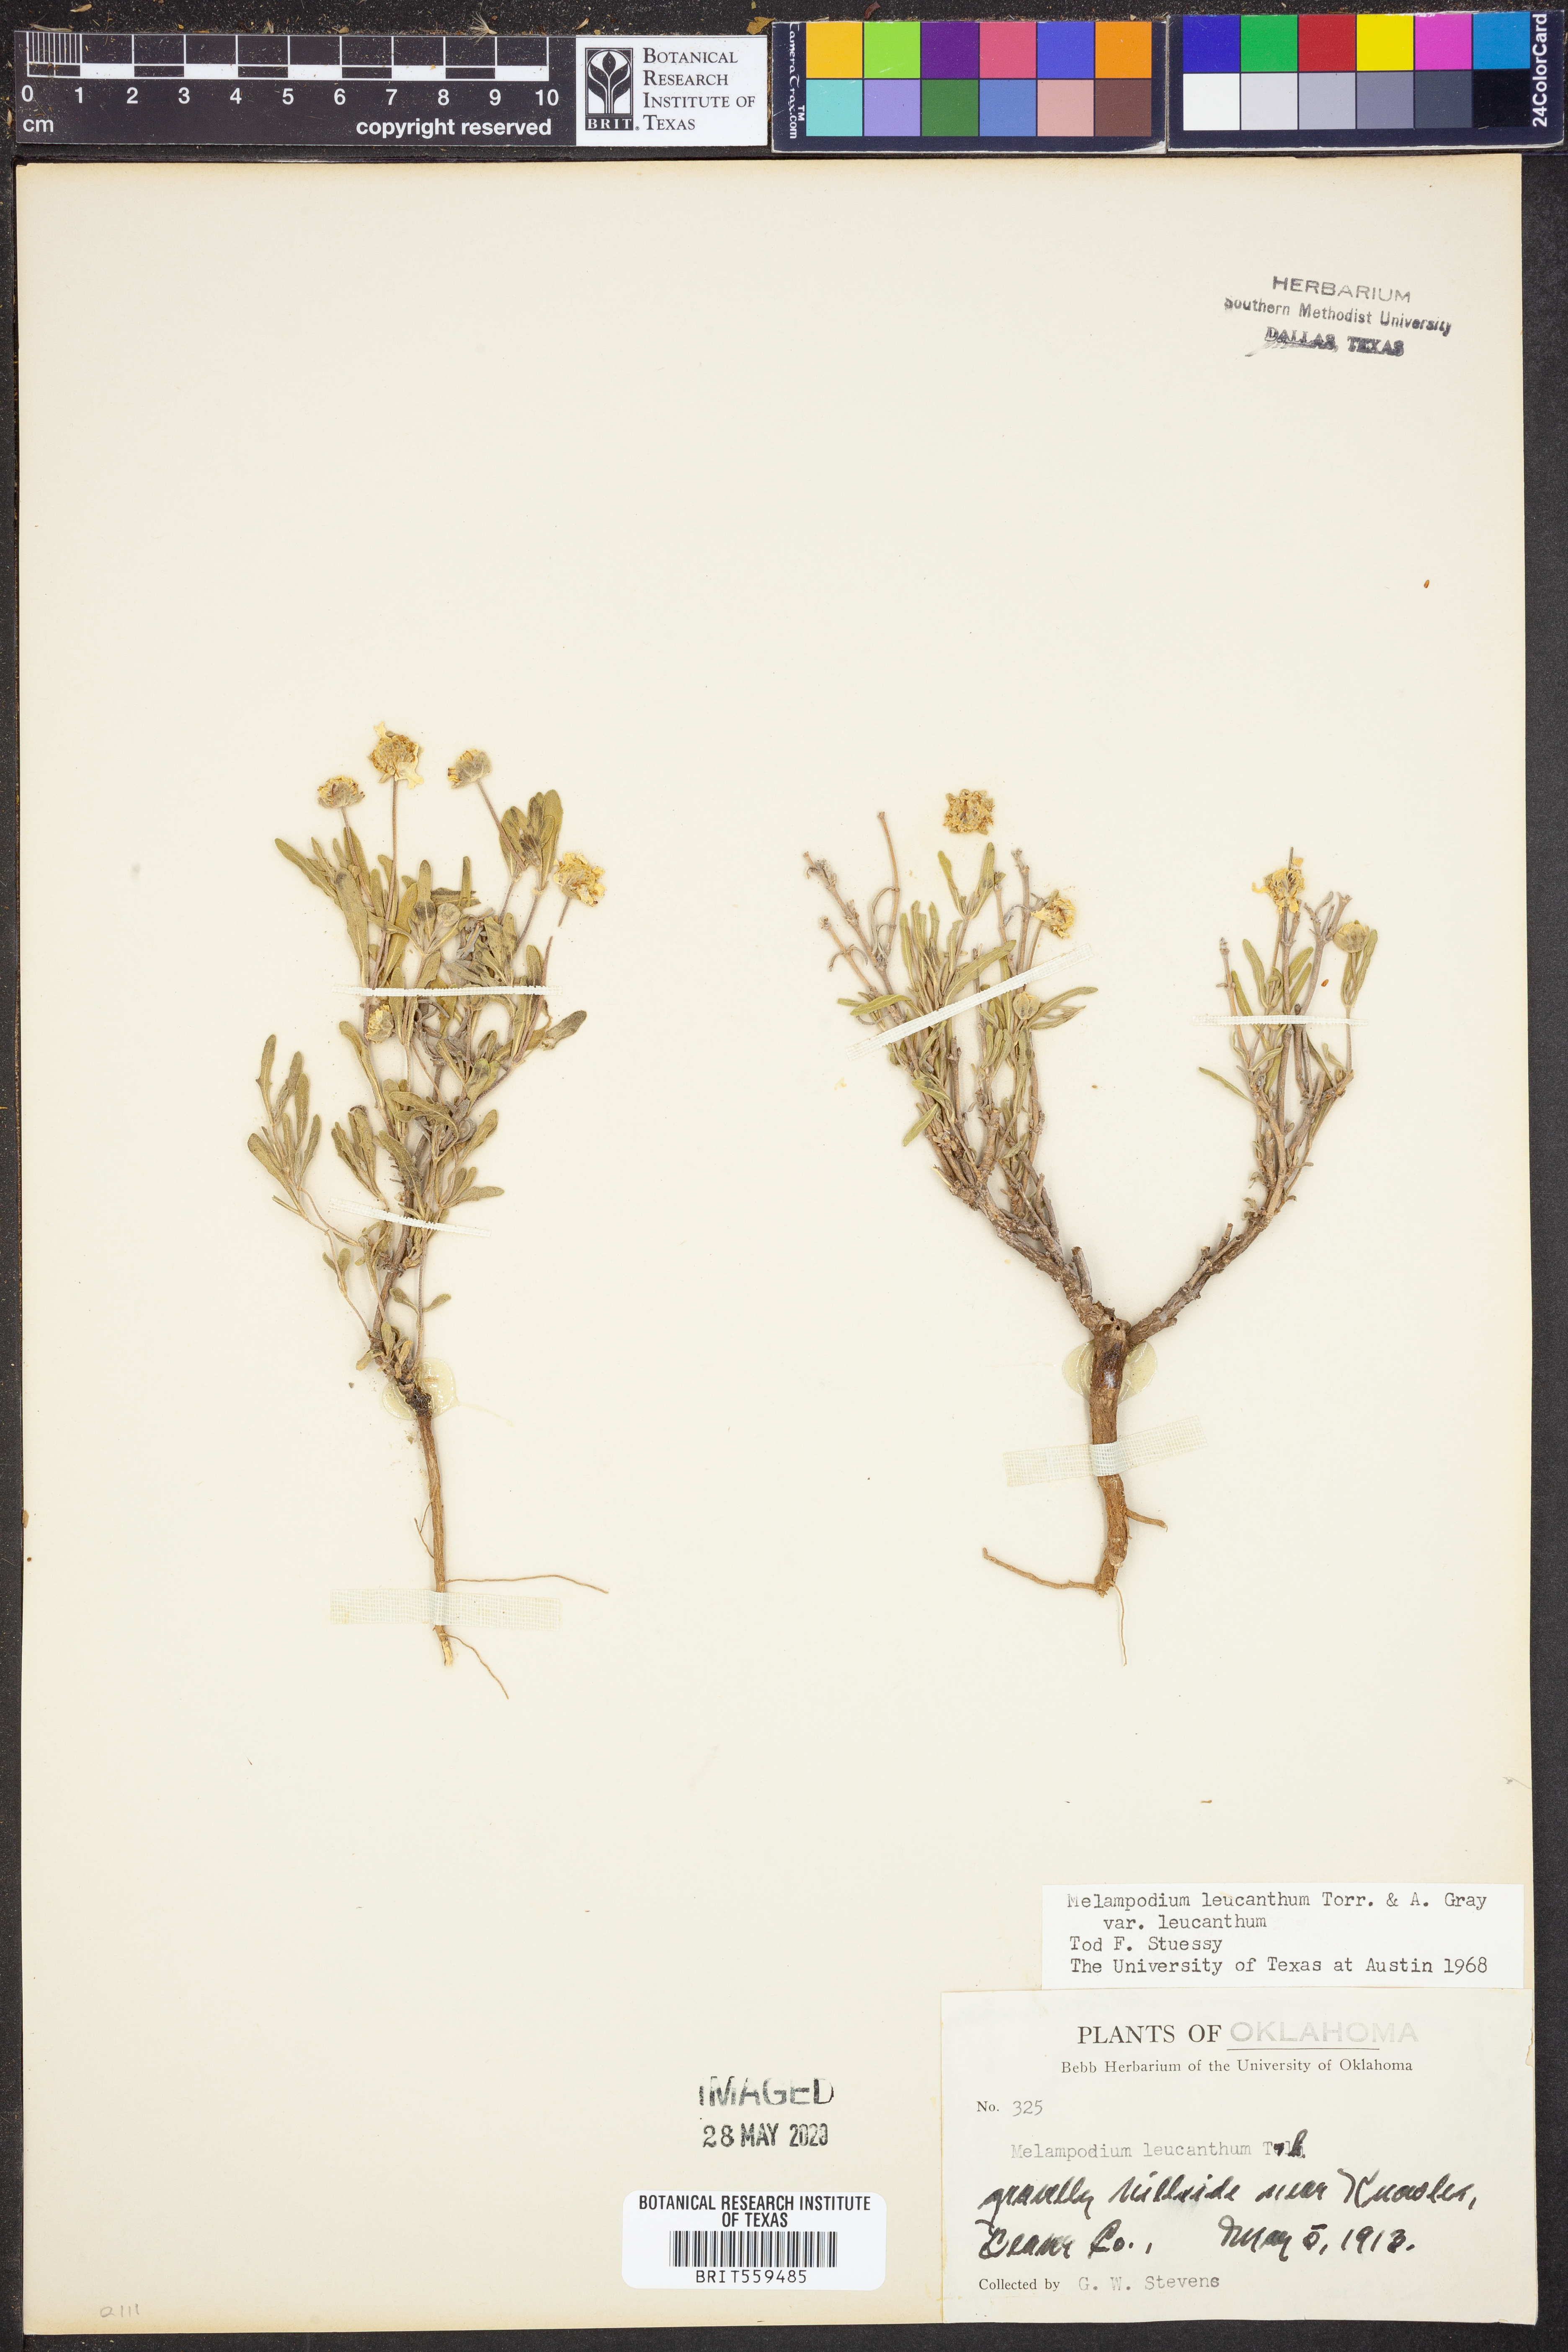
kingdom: Plantae
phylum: Tracheophyta
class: Magnoliopsida
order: Asterales
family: Asteraceae
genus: Melampodium
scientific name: Melampodium leucanthum
